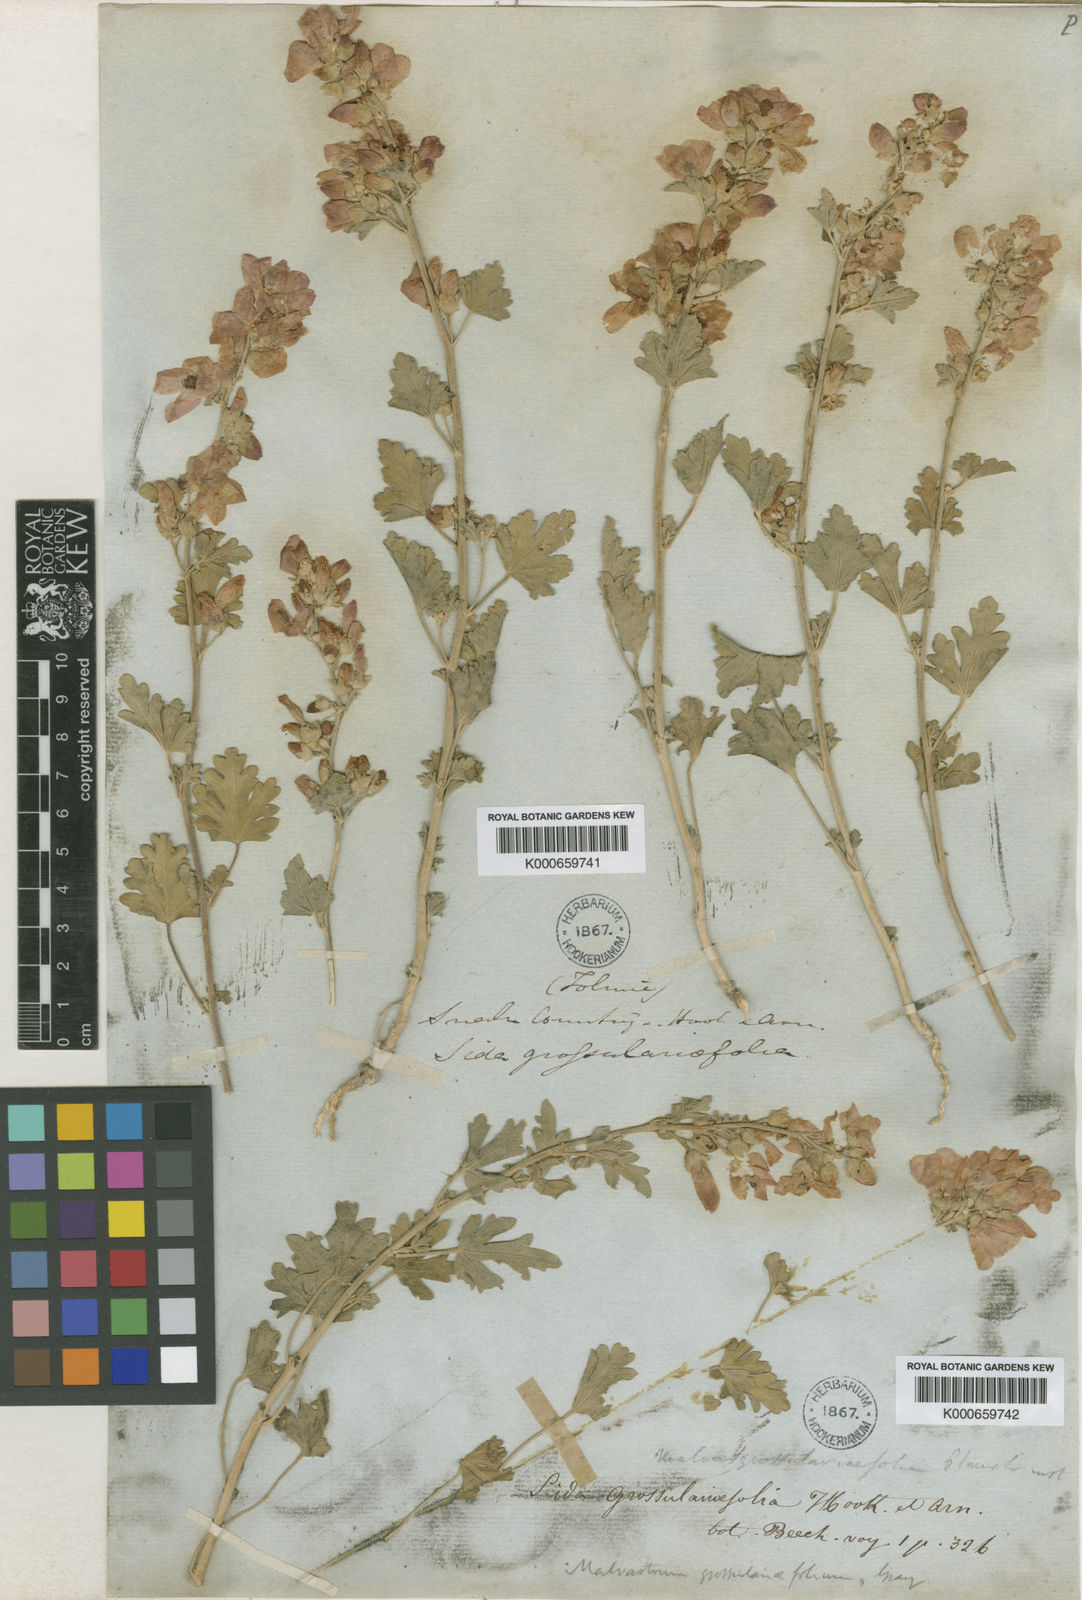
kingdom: Plantae
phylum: Tracheophyta
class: Magnoliopsida
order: Malvales
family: Malvaceae
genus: Sphaeralcea
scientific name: Sphaeralcea grossulariifolia
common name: Current-leaf globe-mallow
